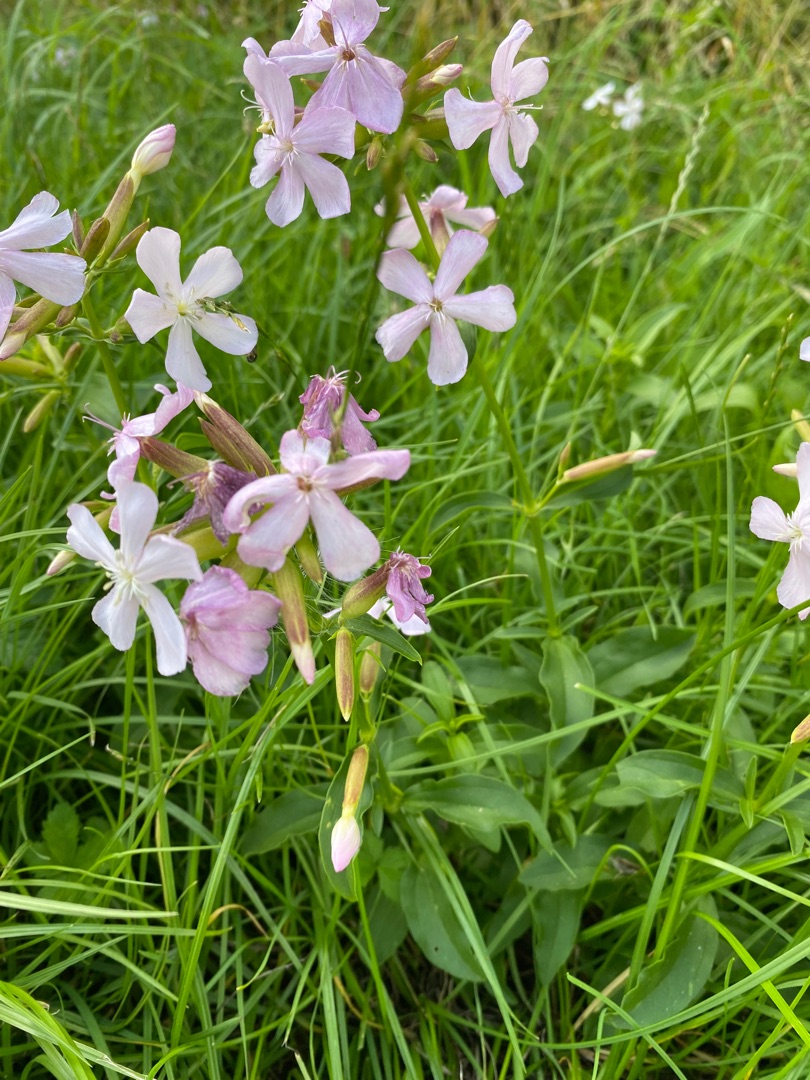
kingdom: Plantae
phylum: Tracheophyta
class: Magnoliopsida
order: Caryophyllales
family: Caryophyllaceae
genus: Saponaria
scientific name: Saponaria officinalis
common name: Sæbeurt
